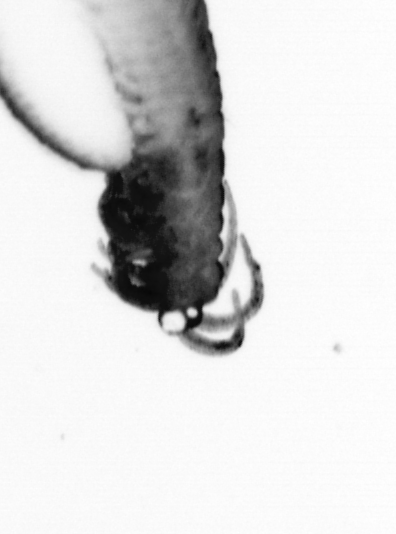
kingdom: Animalia
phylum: Annelida
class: Polychaeta
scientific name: Polychaeta
